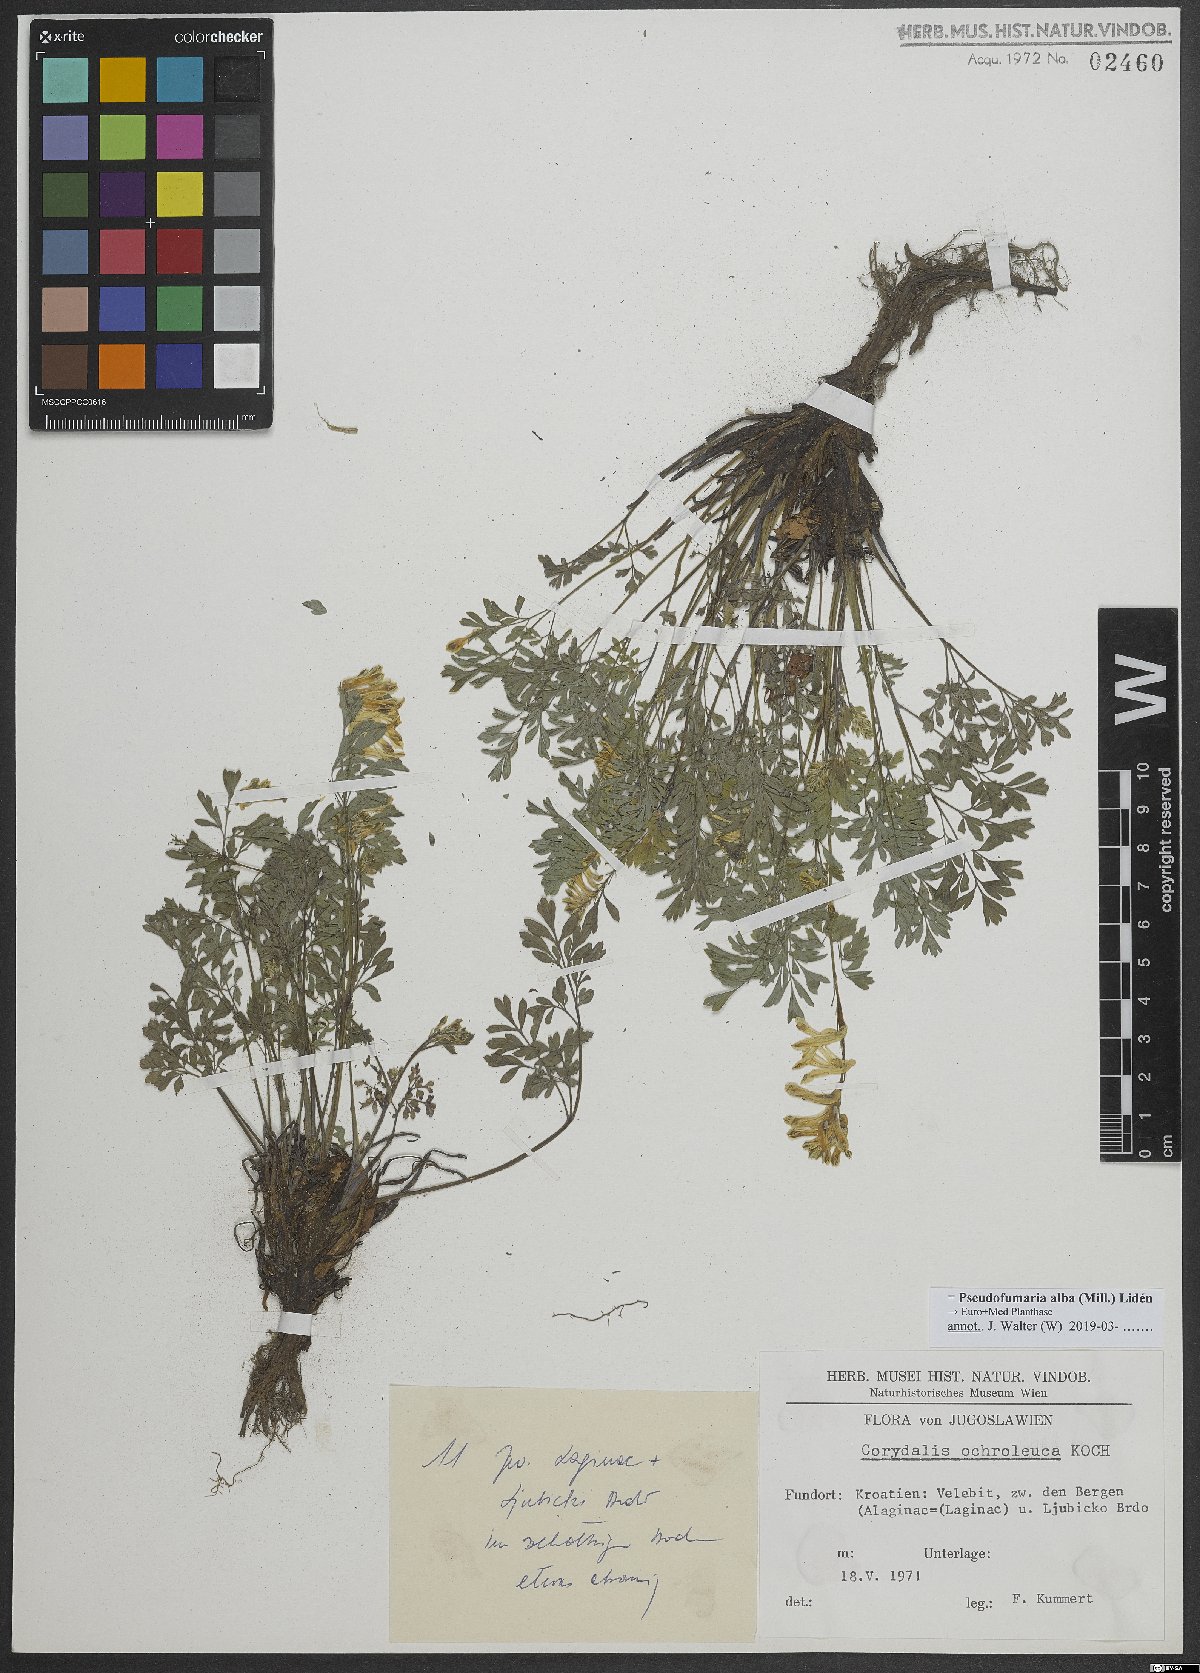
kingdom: Plantae
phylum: Tracheophyta
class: Magnoliopsida
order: Ranunculales
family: Papaveraceae
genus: Pseudofumaria
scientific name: Pseudofumaria alba
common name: Pale corydalis
